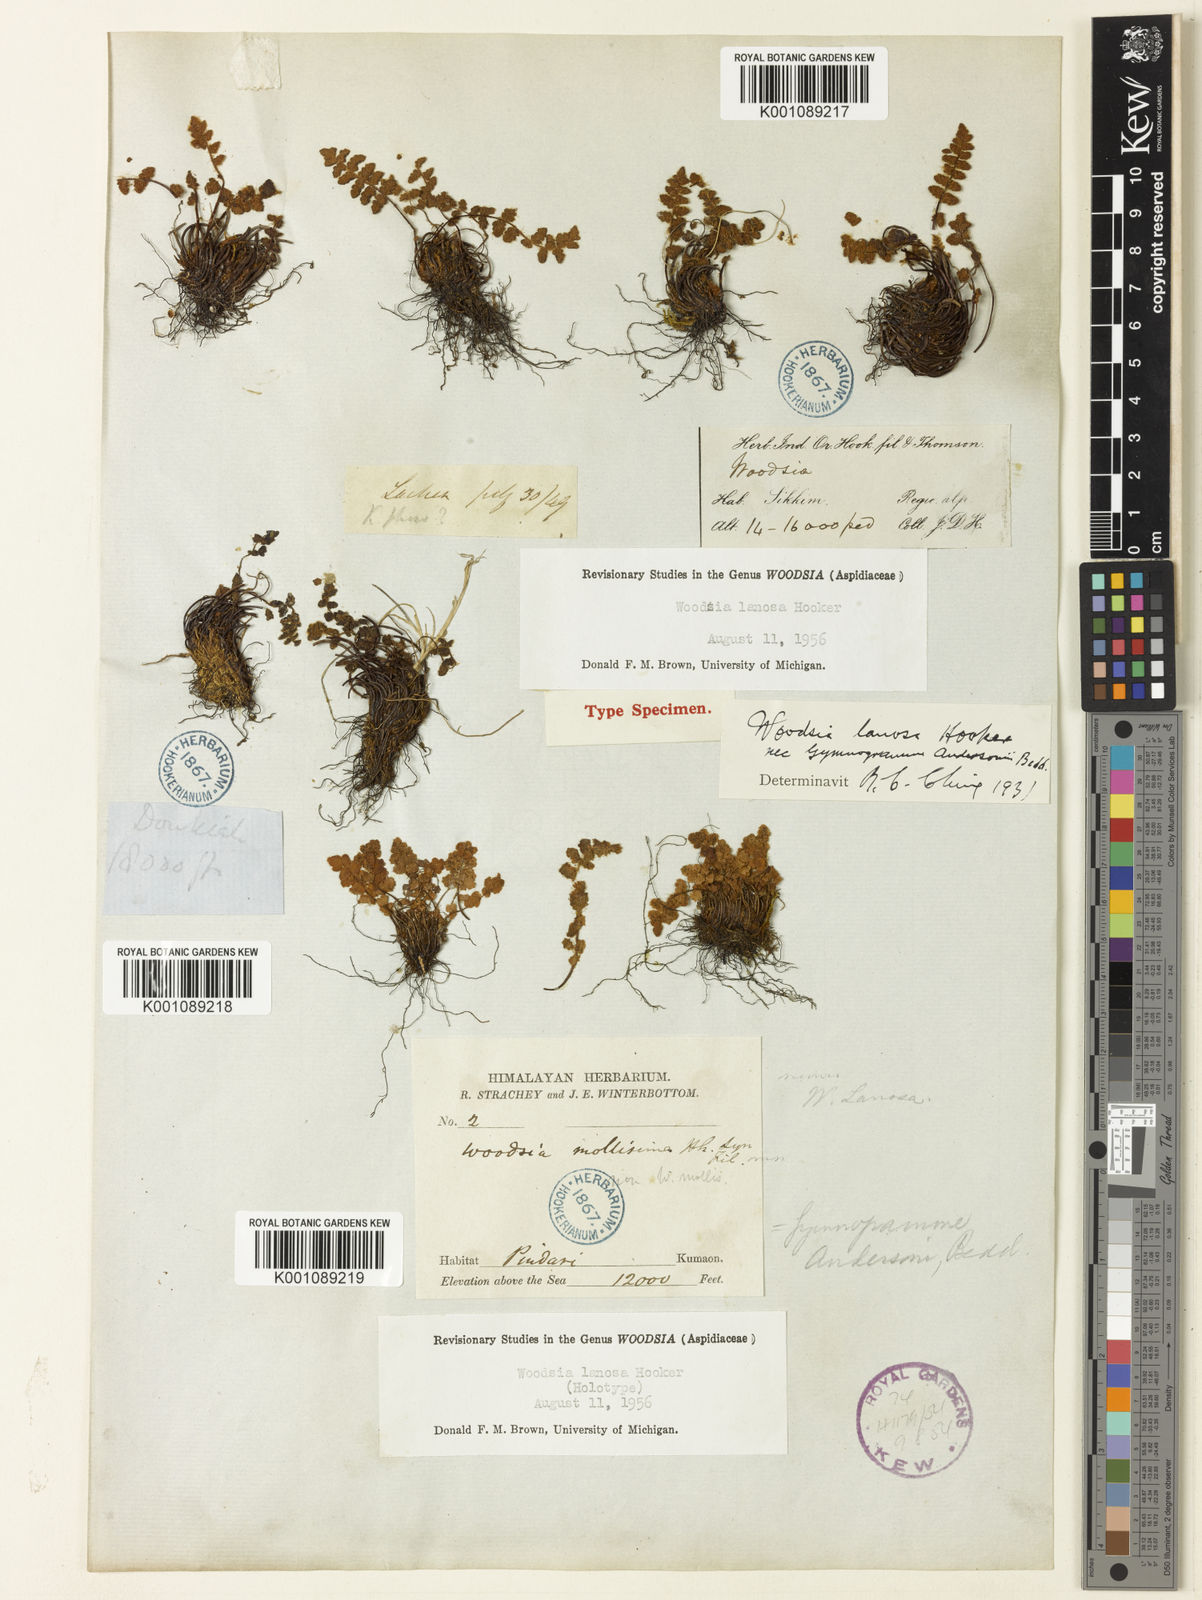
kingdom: Plantae
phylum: Tracheophyta
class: Polypodiopsida
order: Polypodiales
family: Woodsiaceae
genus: Woodsia
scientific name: Woodsia lanosa
